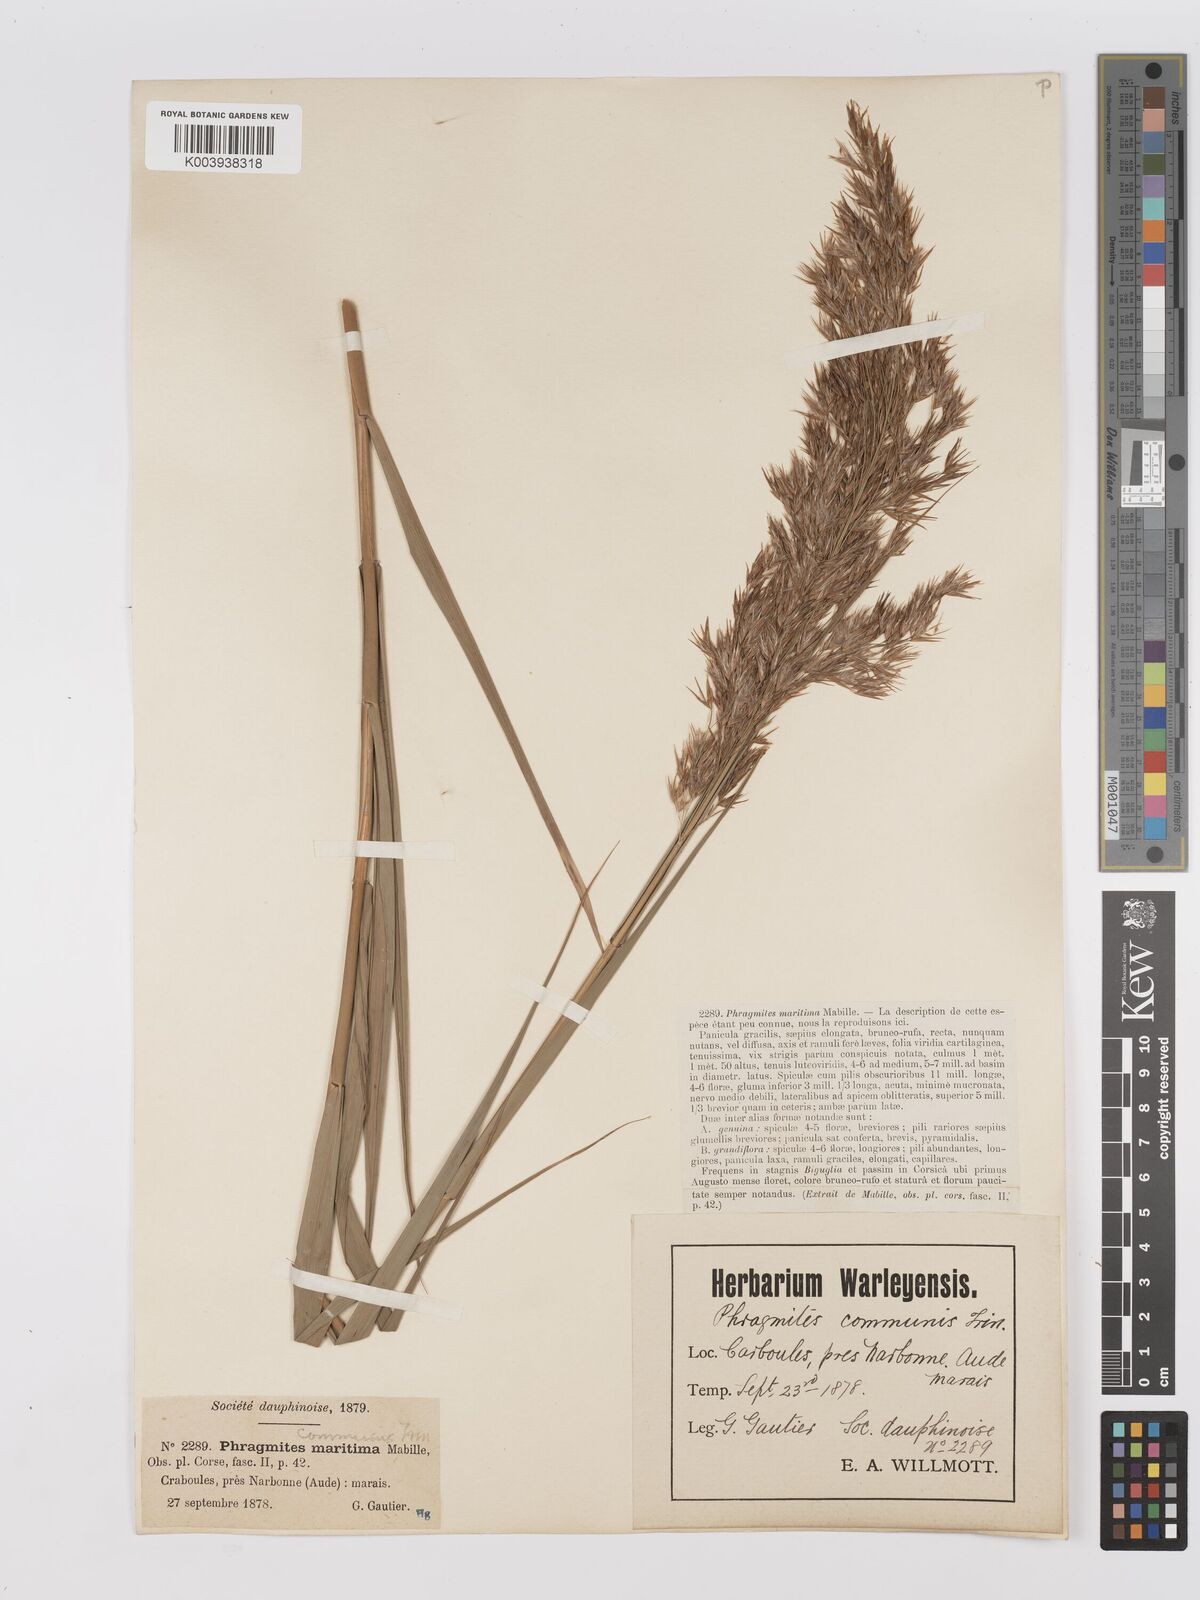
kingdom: Plantae
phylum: Tracheophyta
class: Liliopsida
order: Poales
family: Poaceae
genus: Phragmites
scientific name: Phragmites australis
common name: Common reed
